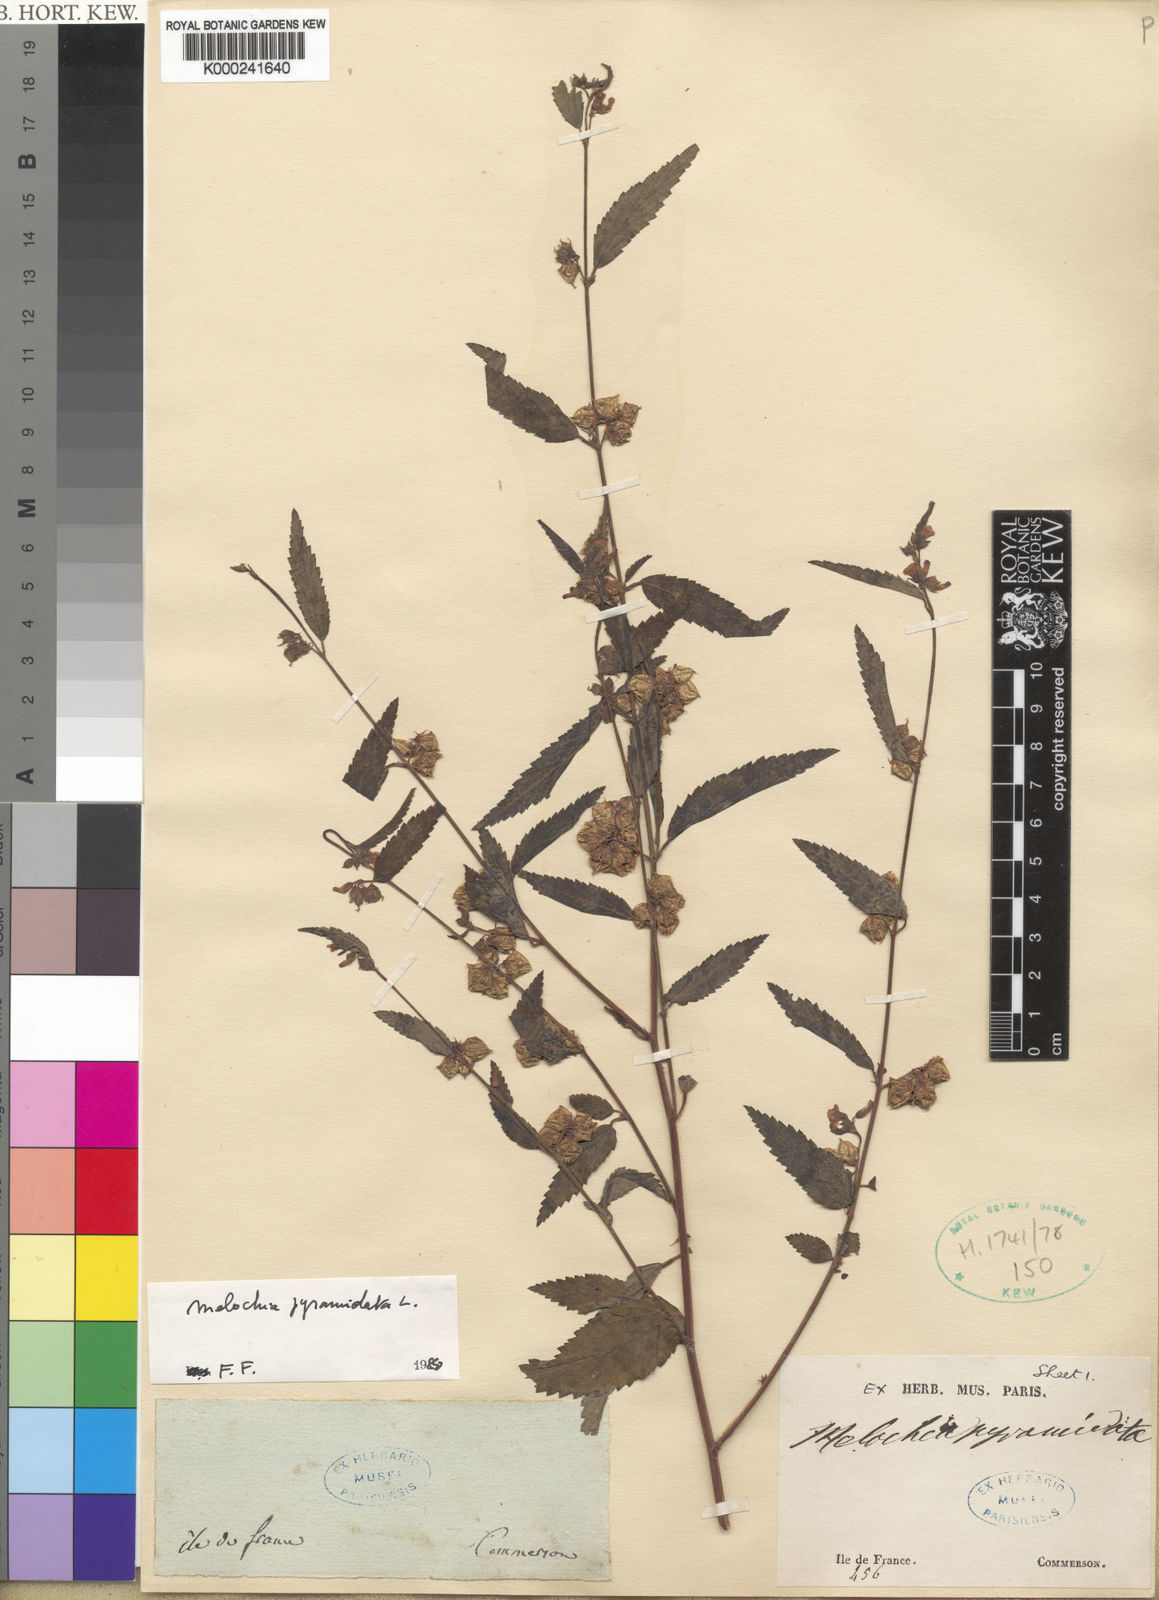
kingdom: Plantae
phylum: Tracheophyta
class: Magnoliopsida
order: Malvales
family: Malvaceae
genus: Melochia
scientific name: Melochia pyramidata
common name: Pyramidflower
